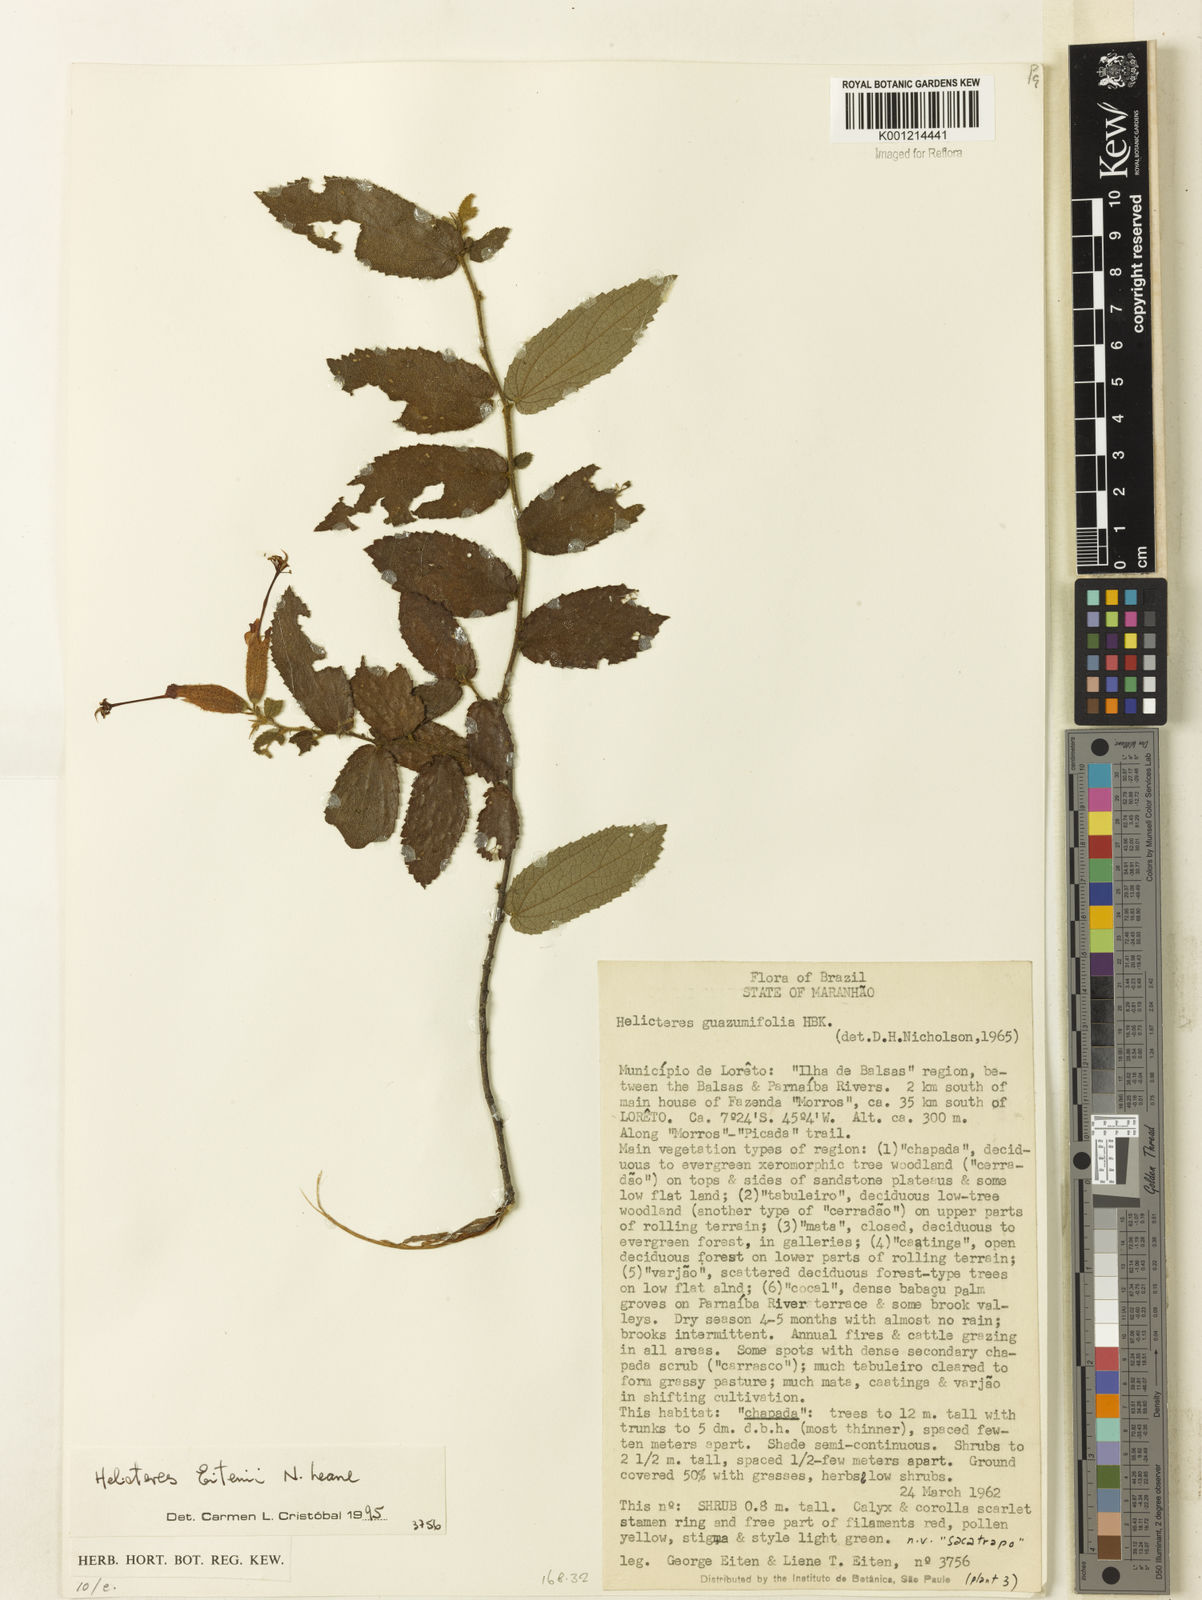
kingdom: Plantae
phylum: Tracheophyta
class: Magnoliopsida
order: Malvales
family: Malvaceae
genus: Helicteres
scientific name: Helicteres eitenii
